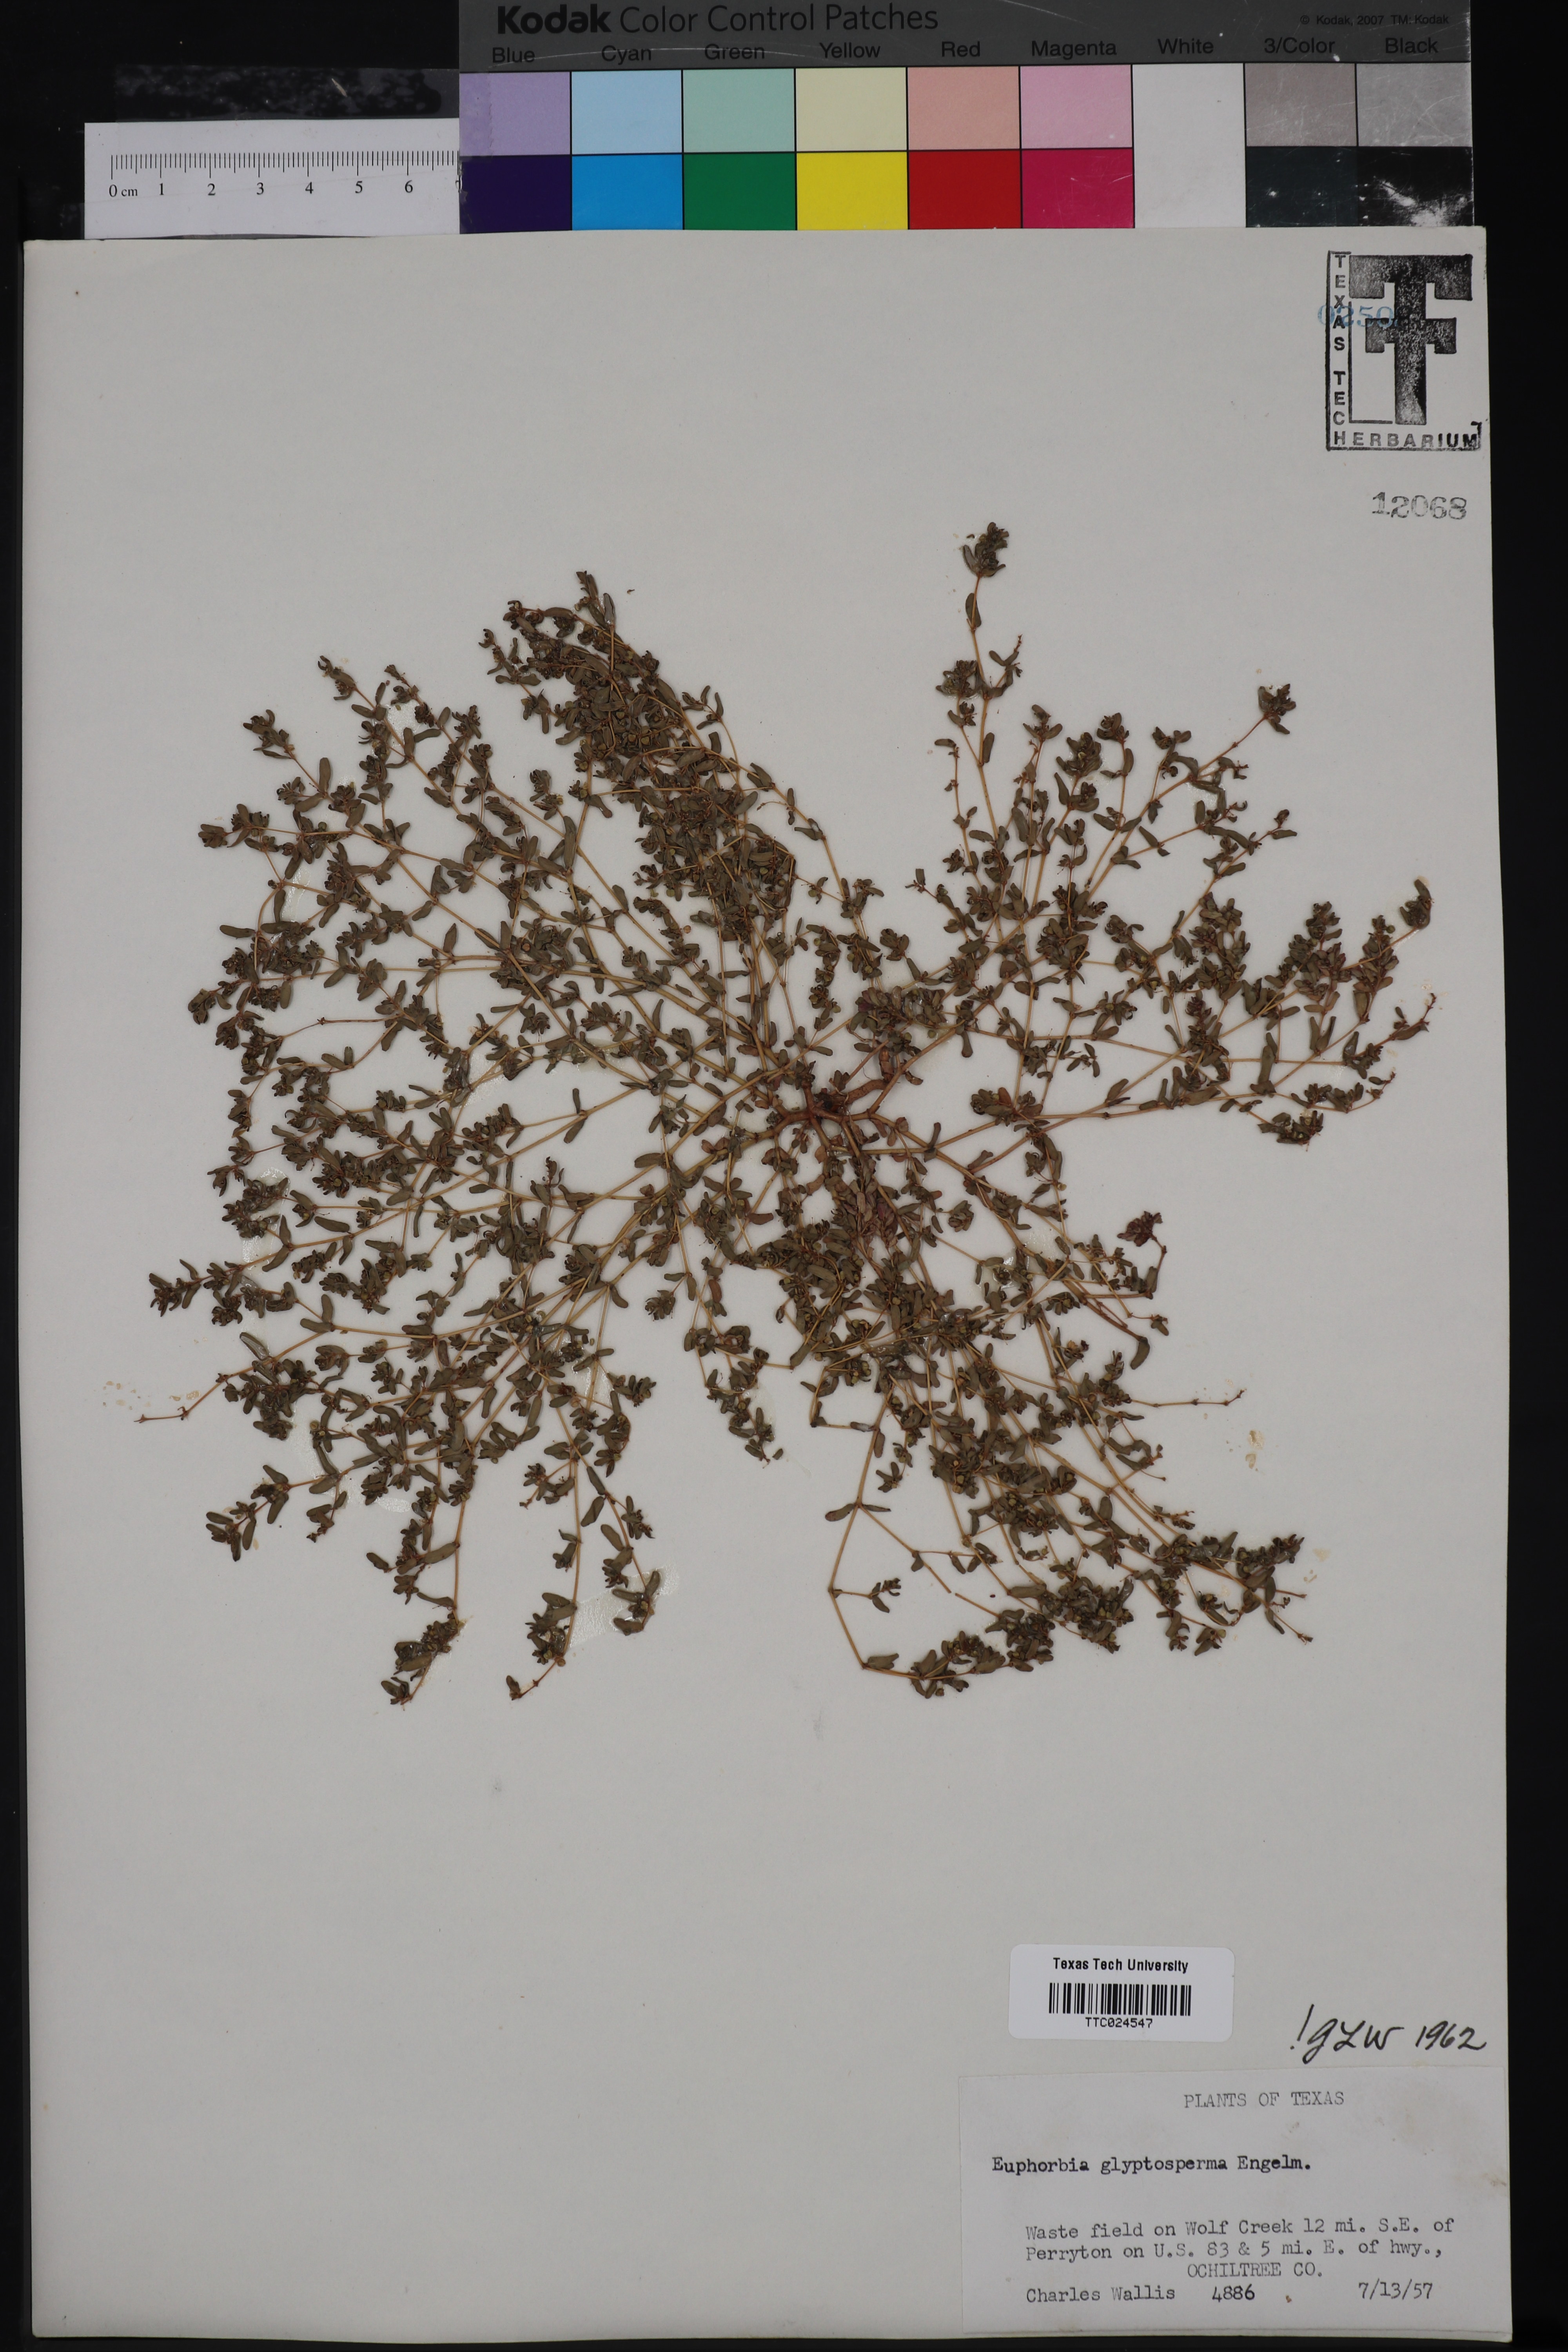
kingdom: Plantae
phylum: Tracheophyta
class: Magnoliopsida
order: Malpighiales
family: Euphorbiaceae
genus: Euphorbia
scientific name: Euphorbia glyptosperma
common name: Corrugate-seeded spurge
